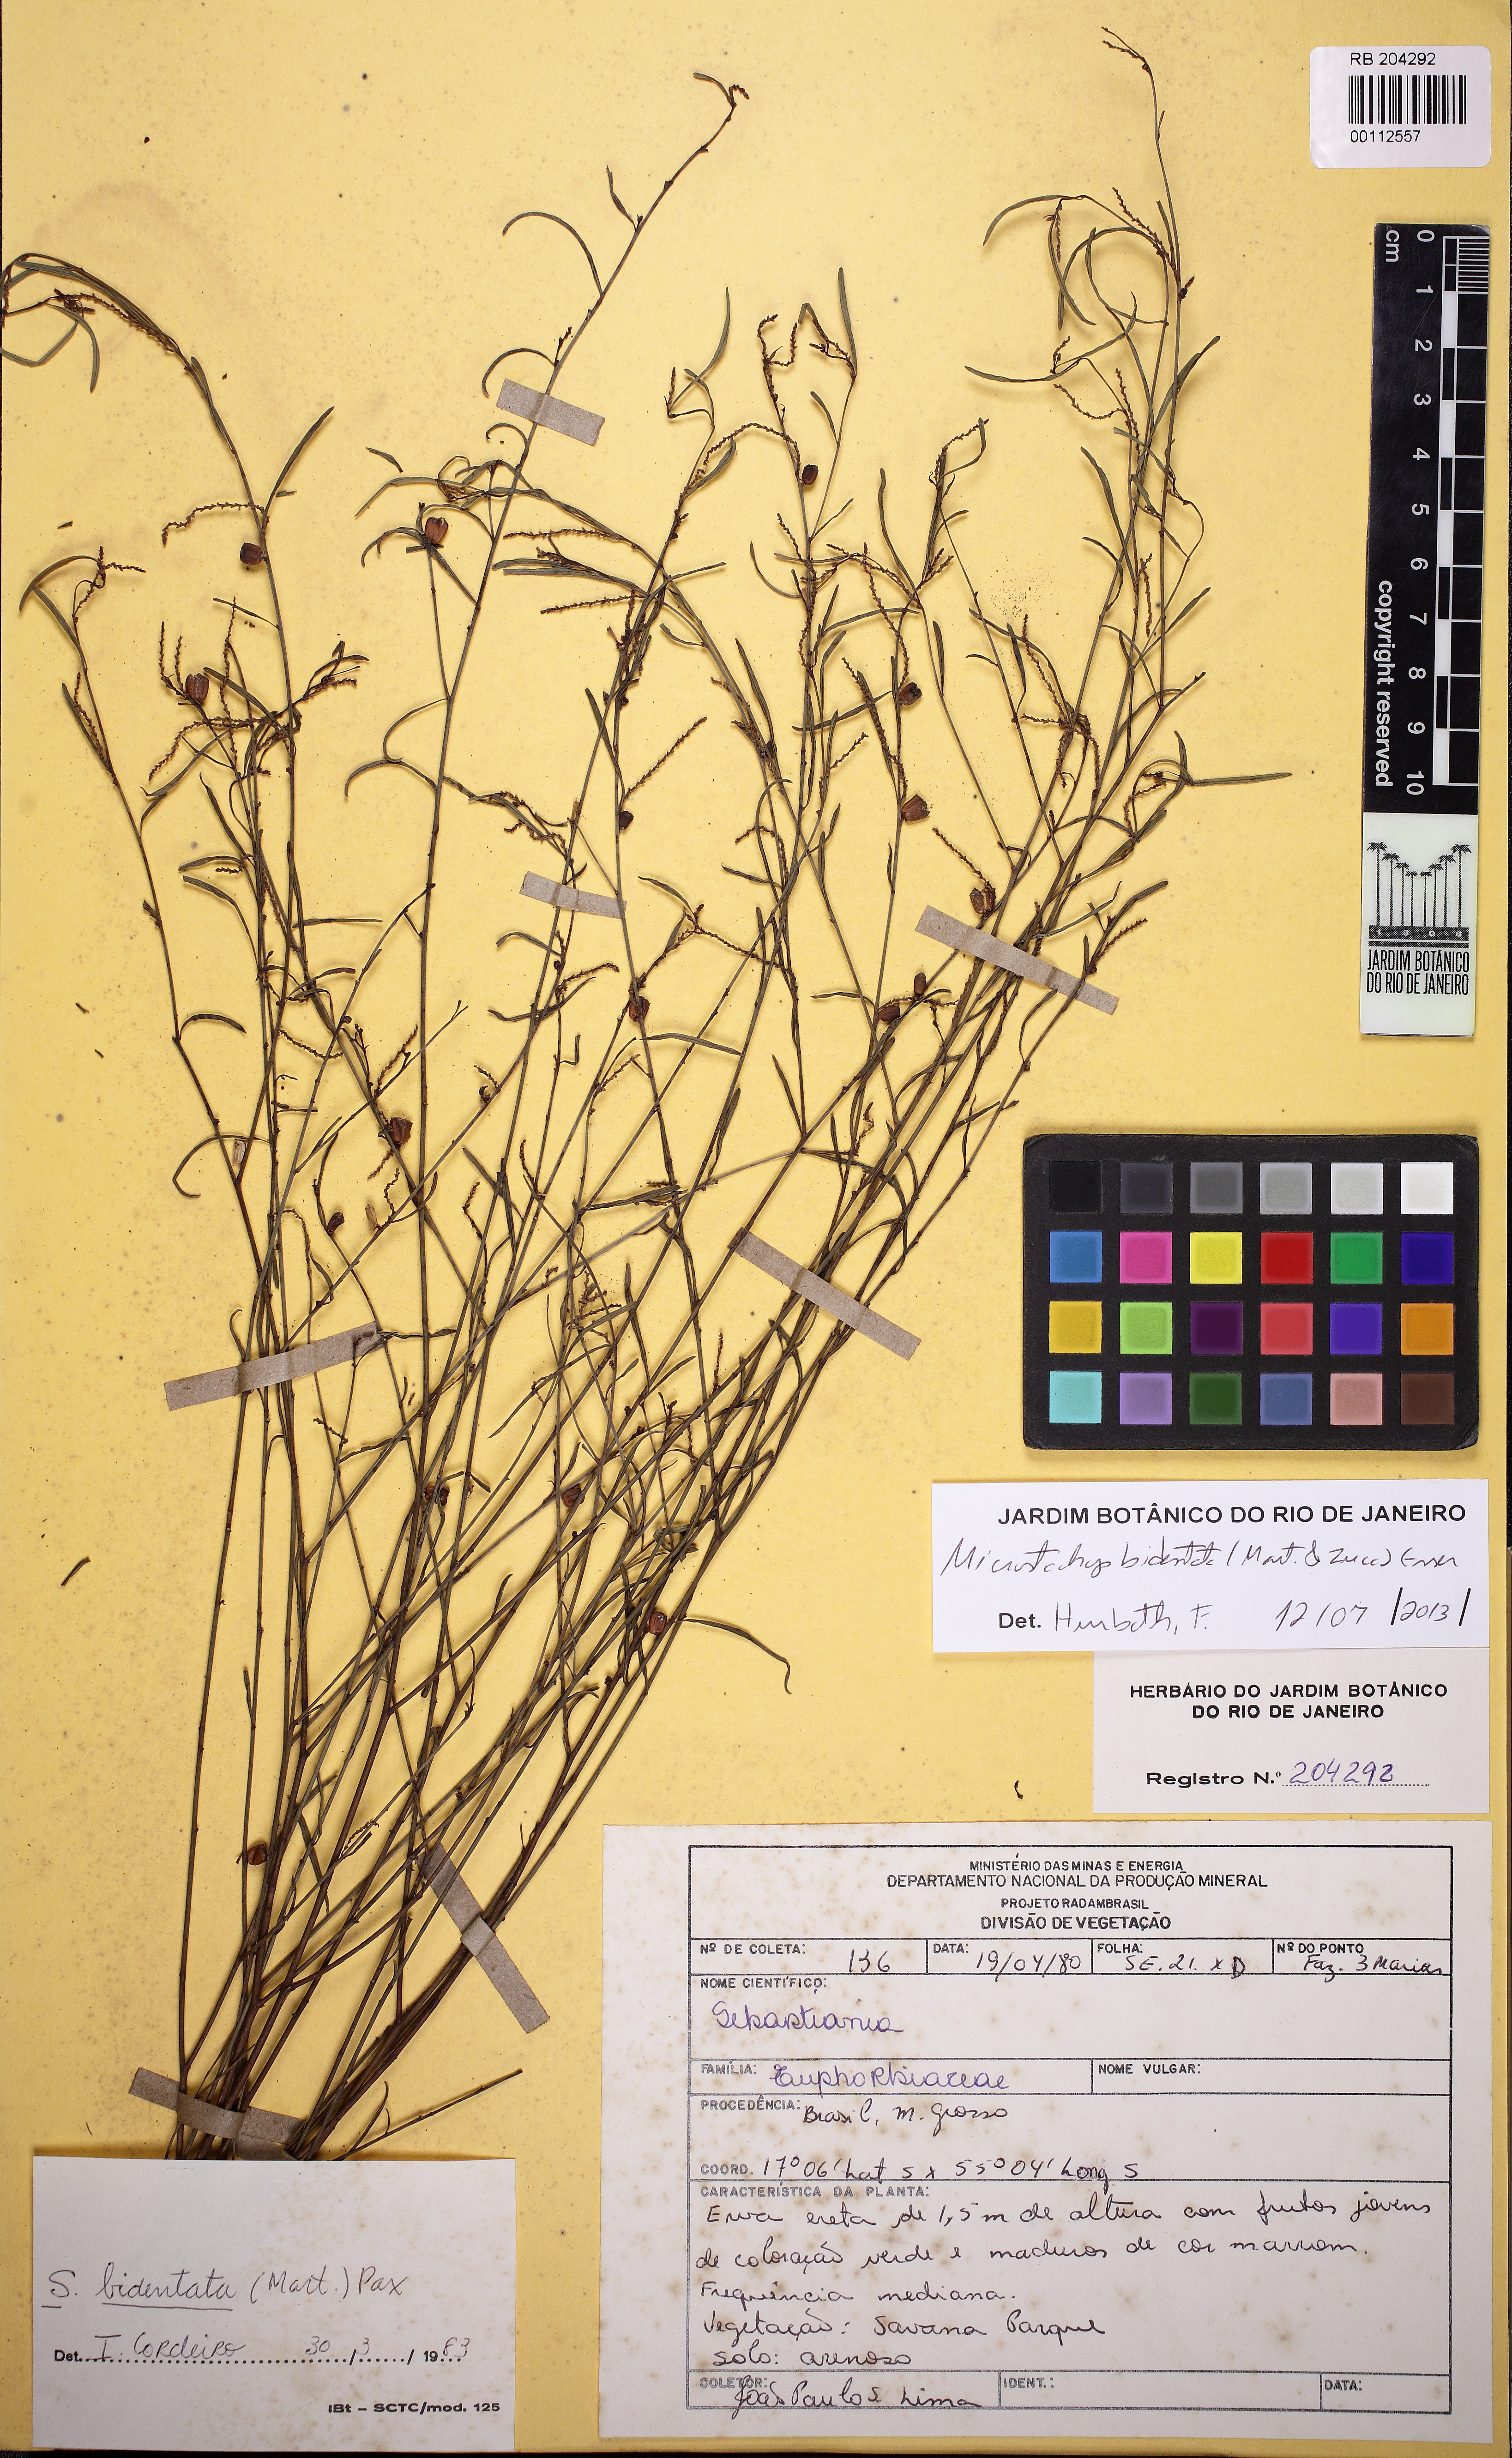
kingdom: Plantae
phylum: Tracheophyta
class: Magnoliopsida
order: Malpighiales
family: Euphorbiaceae
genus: Microstachys
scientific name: Microstachys bidentata
